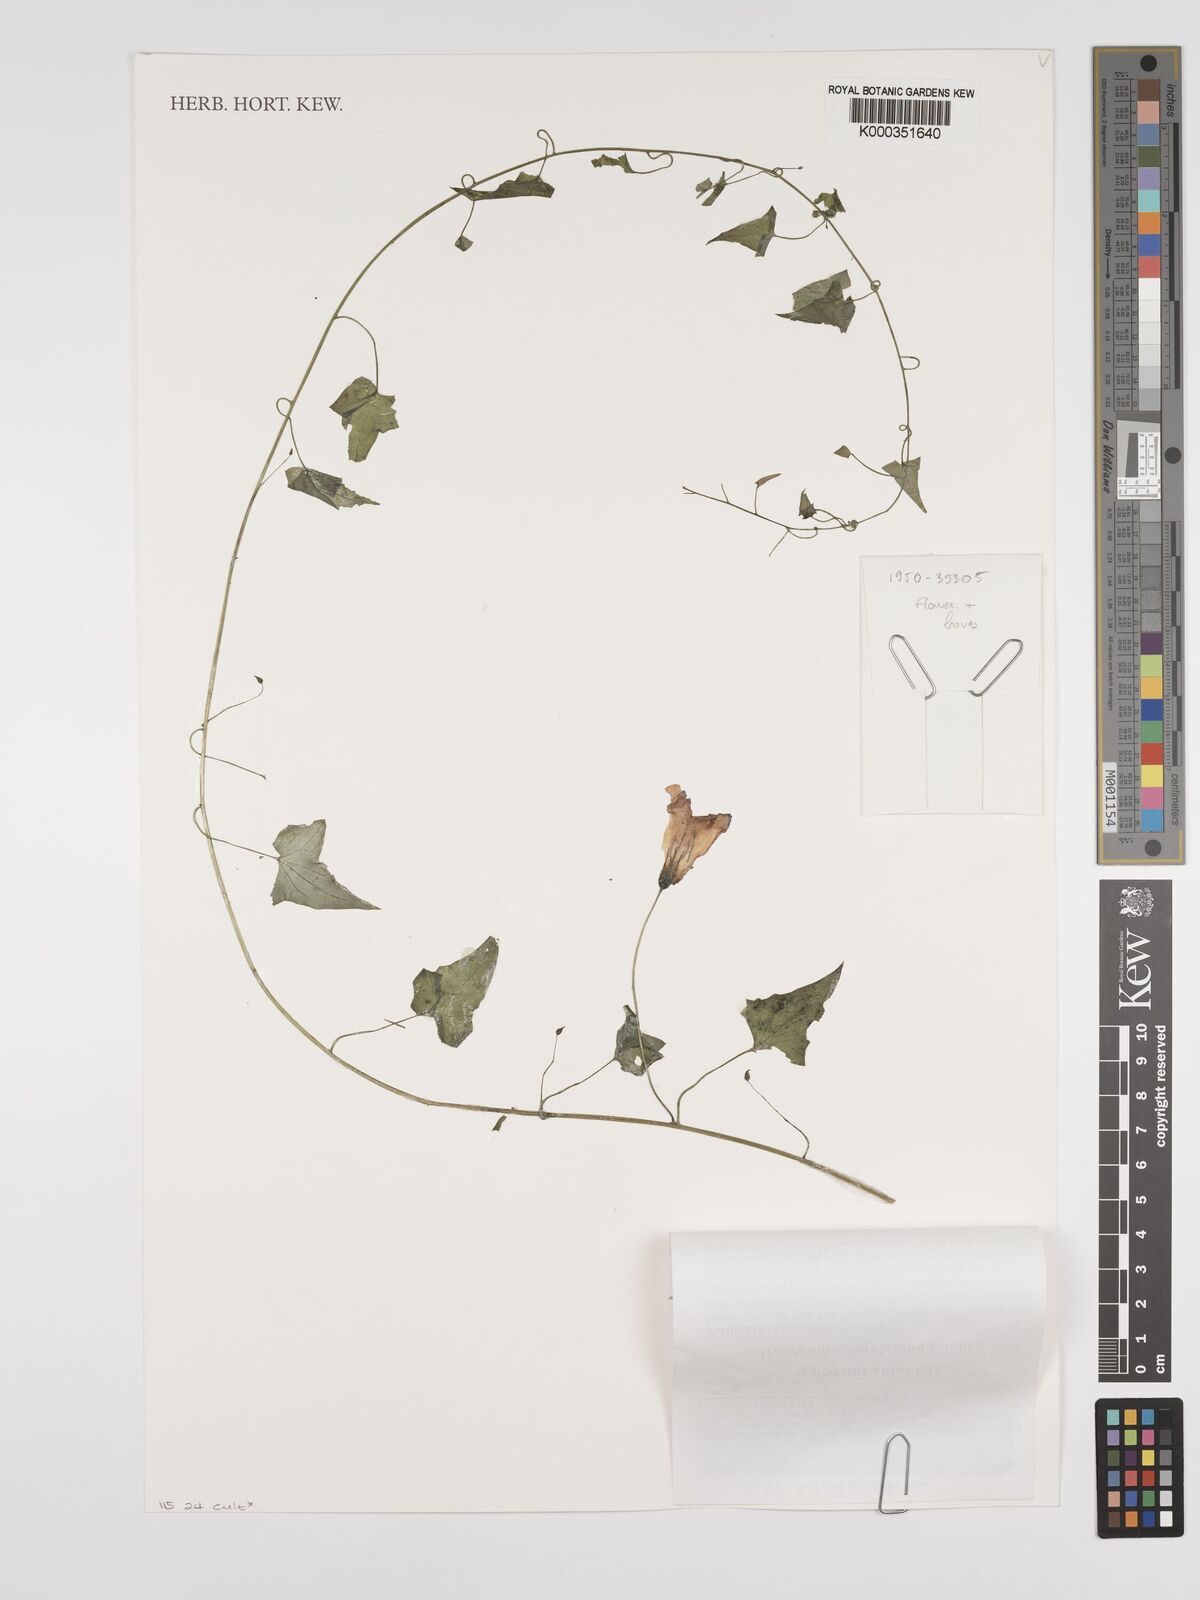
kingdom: Plantae
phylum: Tracheophyta
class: Magnoliopsida
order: Lamiales
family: Plantaginaceae
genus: Maurandya
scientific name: Maurandya
